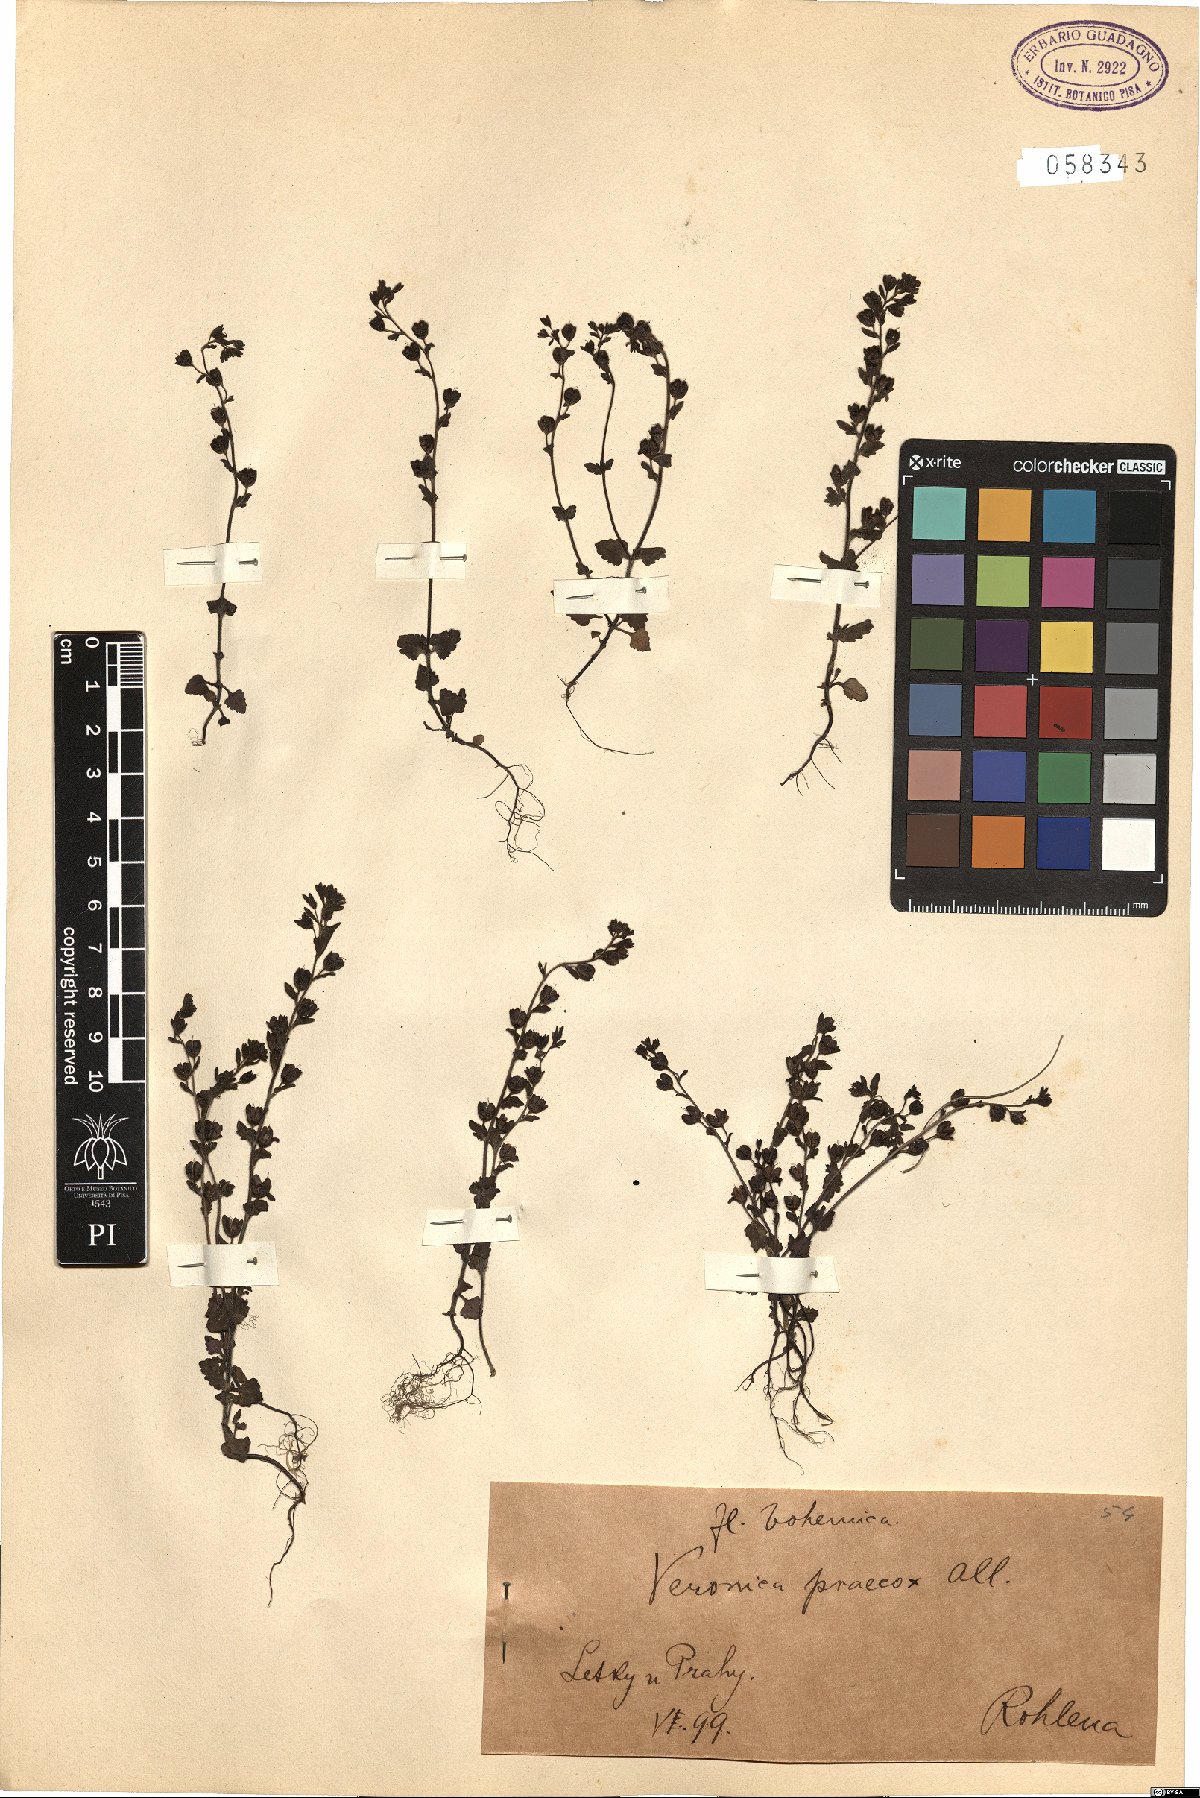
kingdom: Plantae
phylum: Tracheophyta
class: Magnoliopsida
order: Lamiales
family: Plantaginaceae
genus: Veronica
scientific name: Veronica praecox
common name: Breckland speedwell
